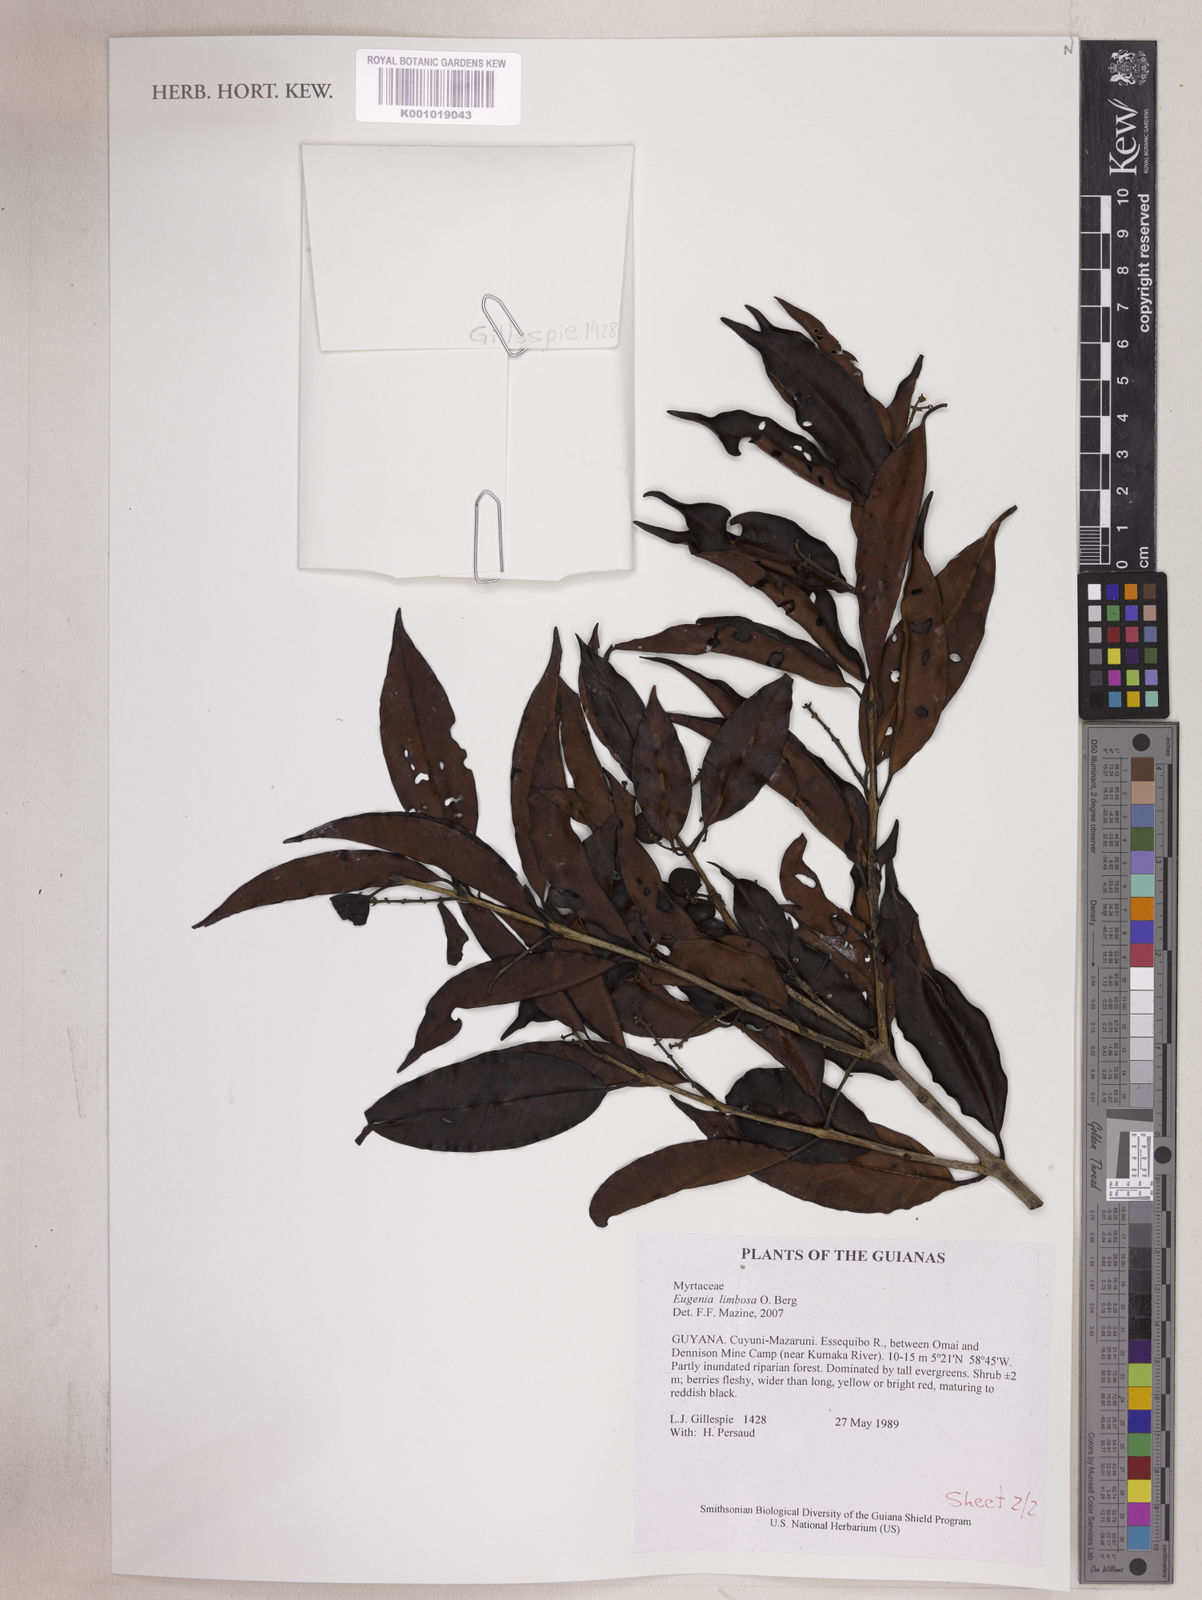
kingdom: Plantae
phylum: Tracheophyta
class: Magnoliopsida
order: Myrtales
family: Myrtaceae
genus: Eugenia
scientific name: Eugenia limbosa
